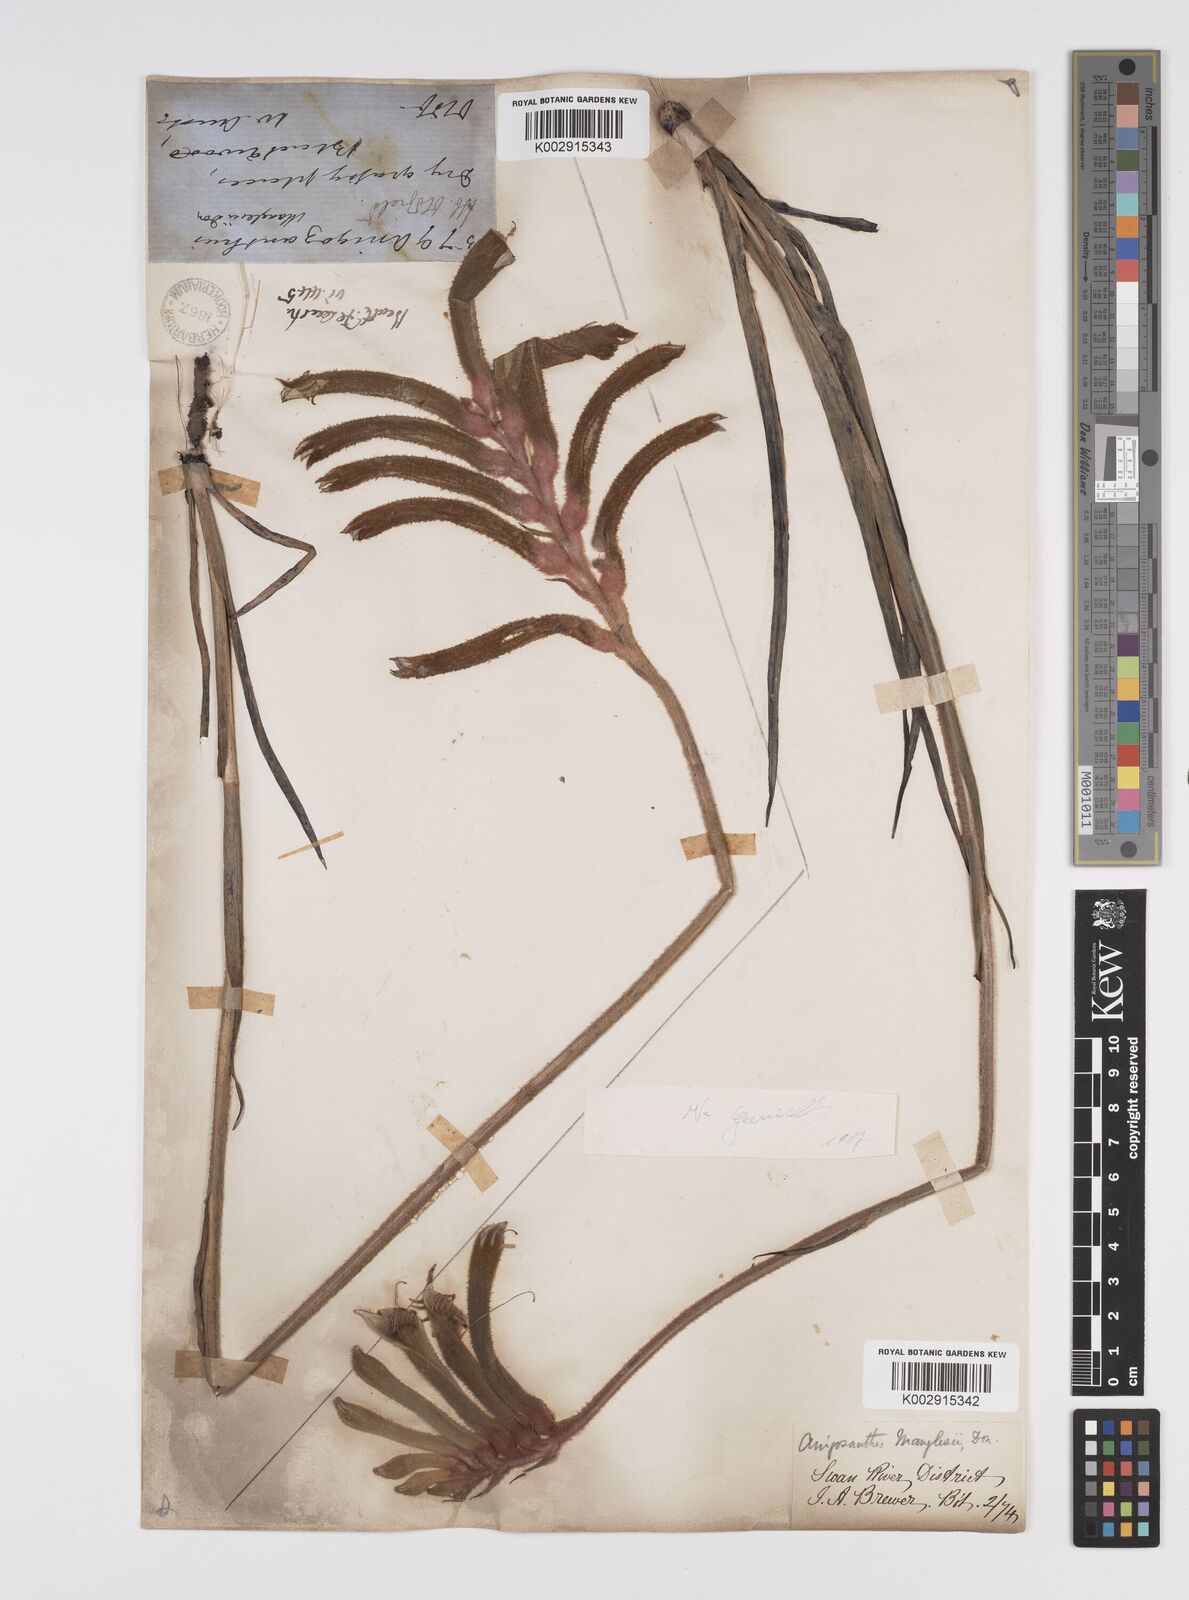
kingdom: Plantae
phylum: Tracheophyta
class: Liliopsida
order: Commelinales
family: Haemodoraceae
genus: Anigozanthos
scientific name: Anigozanthos manglesii
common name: Mangles's kangaroo-paw
